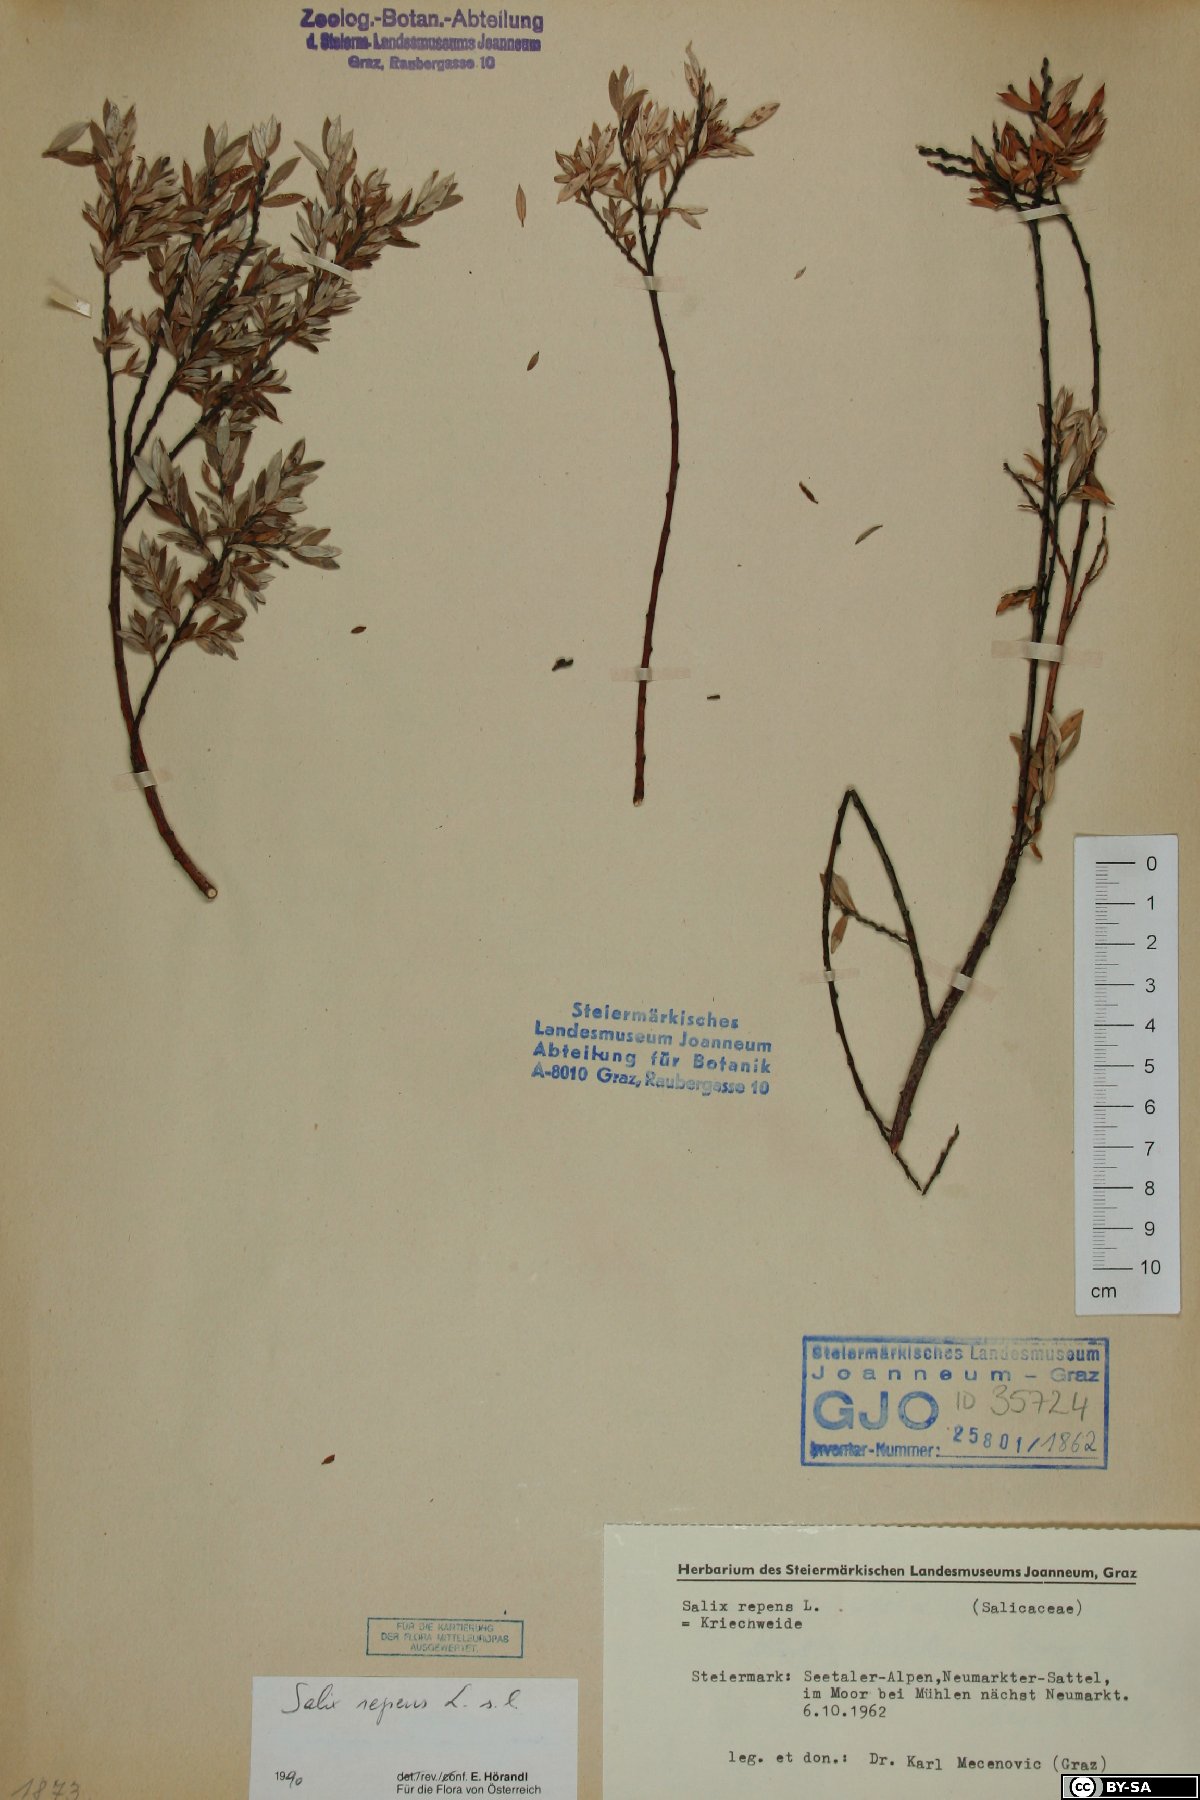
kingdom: Plantae
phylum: Tracheophyta
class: Magnoliopsida
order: Malpighiales
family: Salicaceae
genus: Salix
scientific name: Salix repens
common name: Creeping willow
